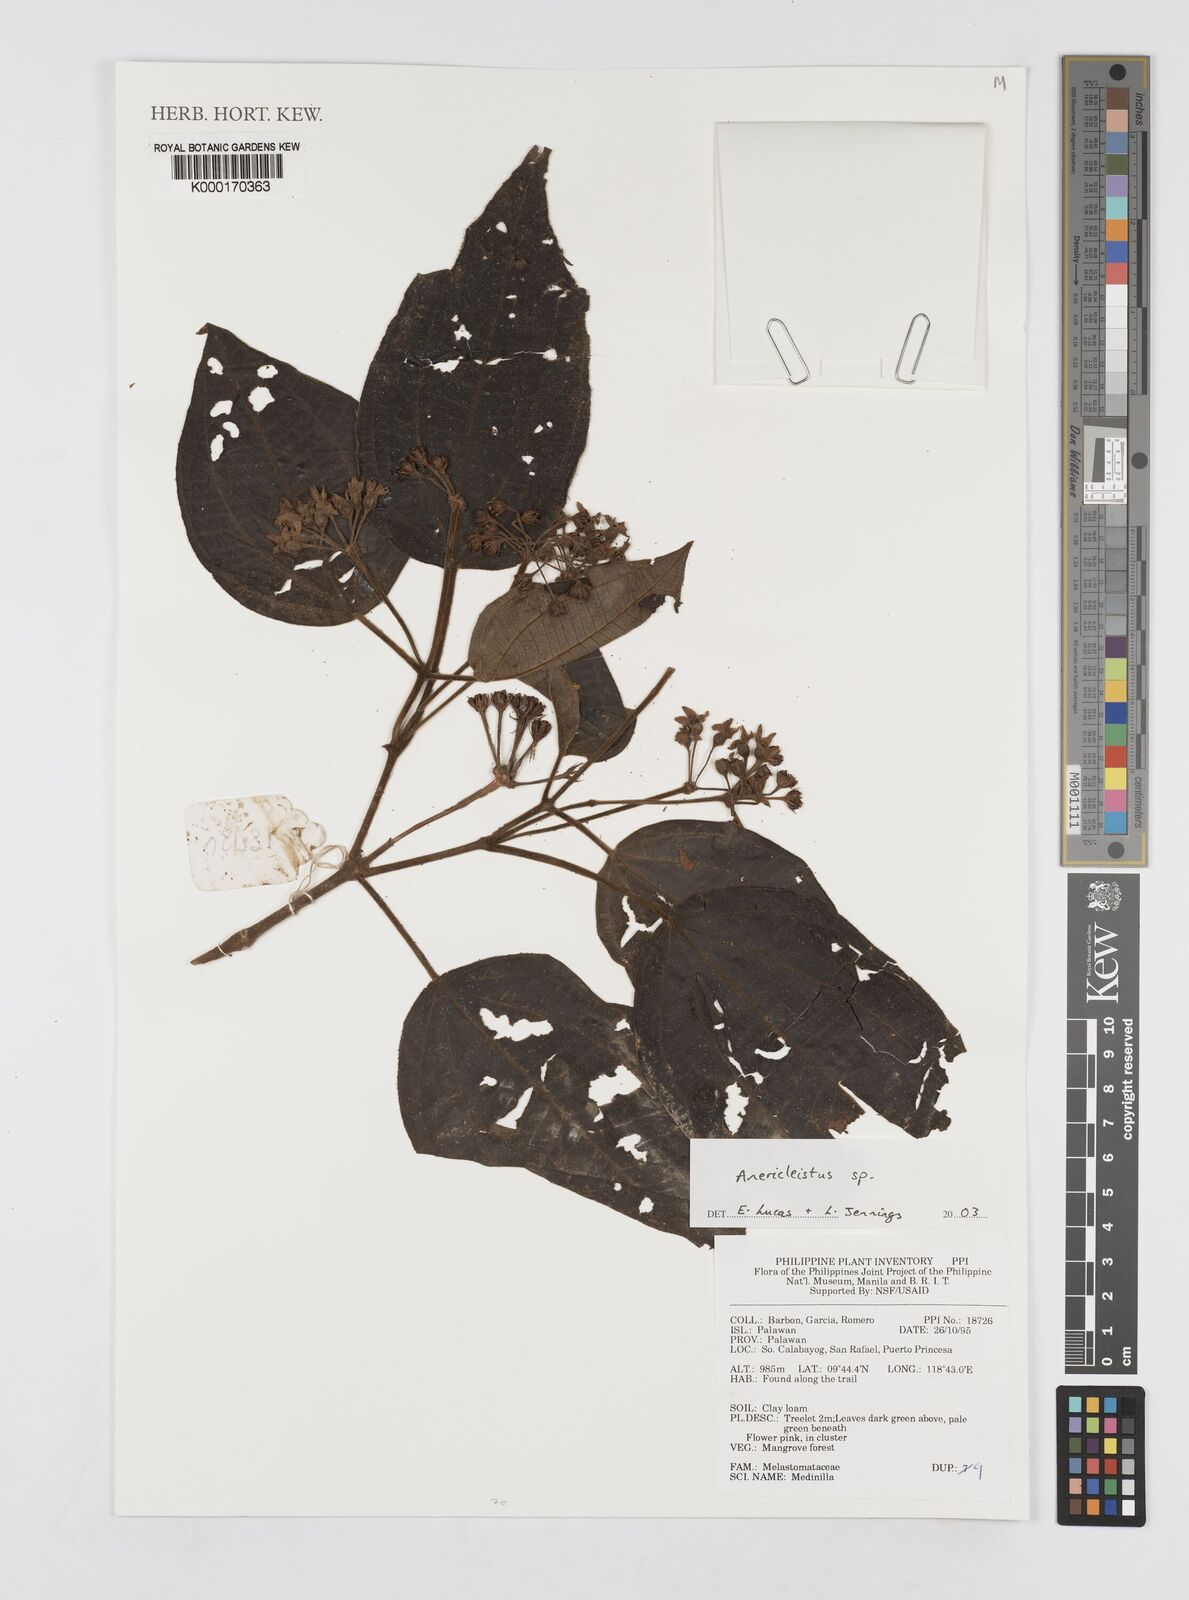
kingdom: Plantae
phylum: Tracheophyta
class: Magnoliopsida
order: Myrtales
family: Melastomataceae
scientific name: Melastomataceae
